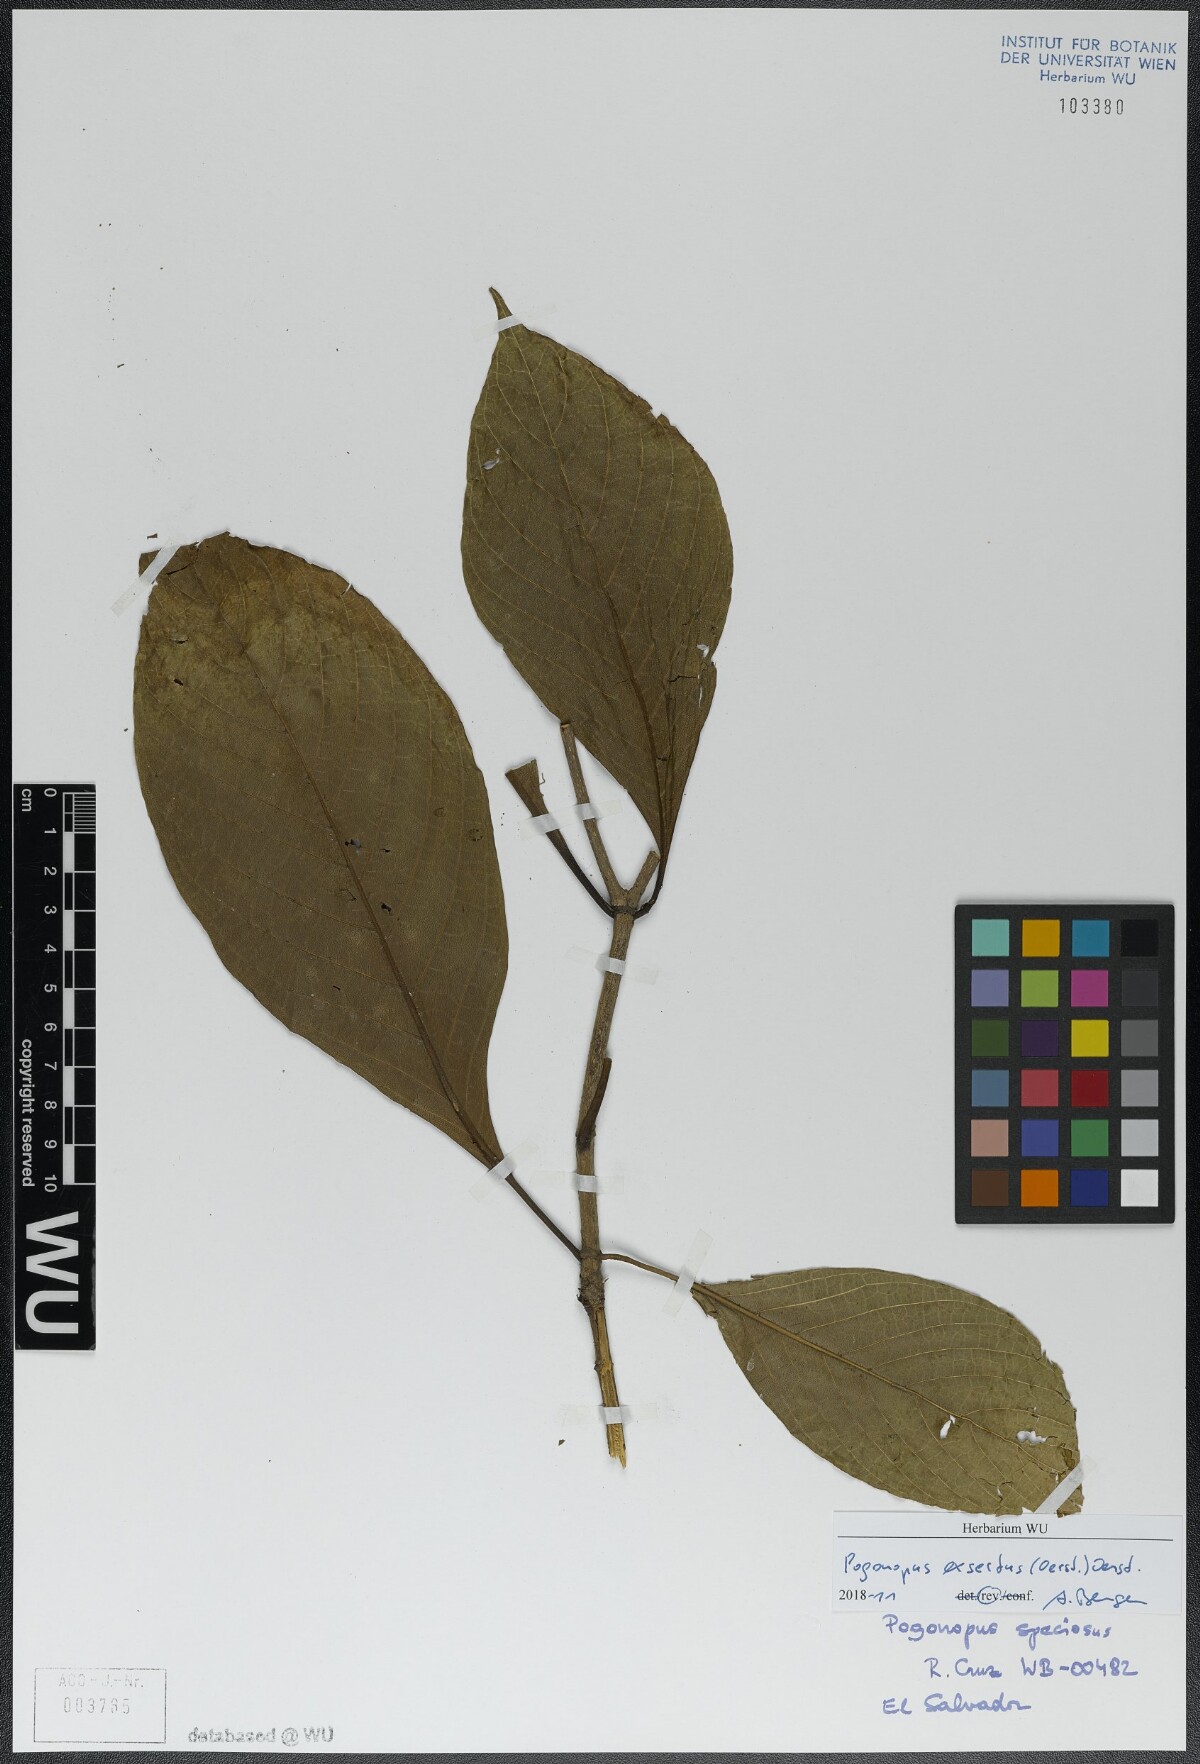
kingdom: Plantae
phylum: Tracheophyta
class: Magnoliopsida
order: Gentianales
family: Rubiaceae
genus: Pogonopus
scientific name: Pogonopus exsertus
